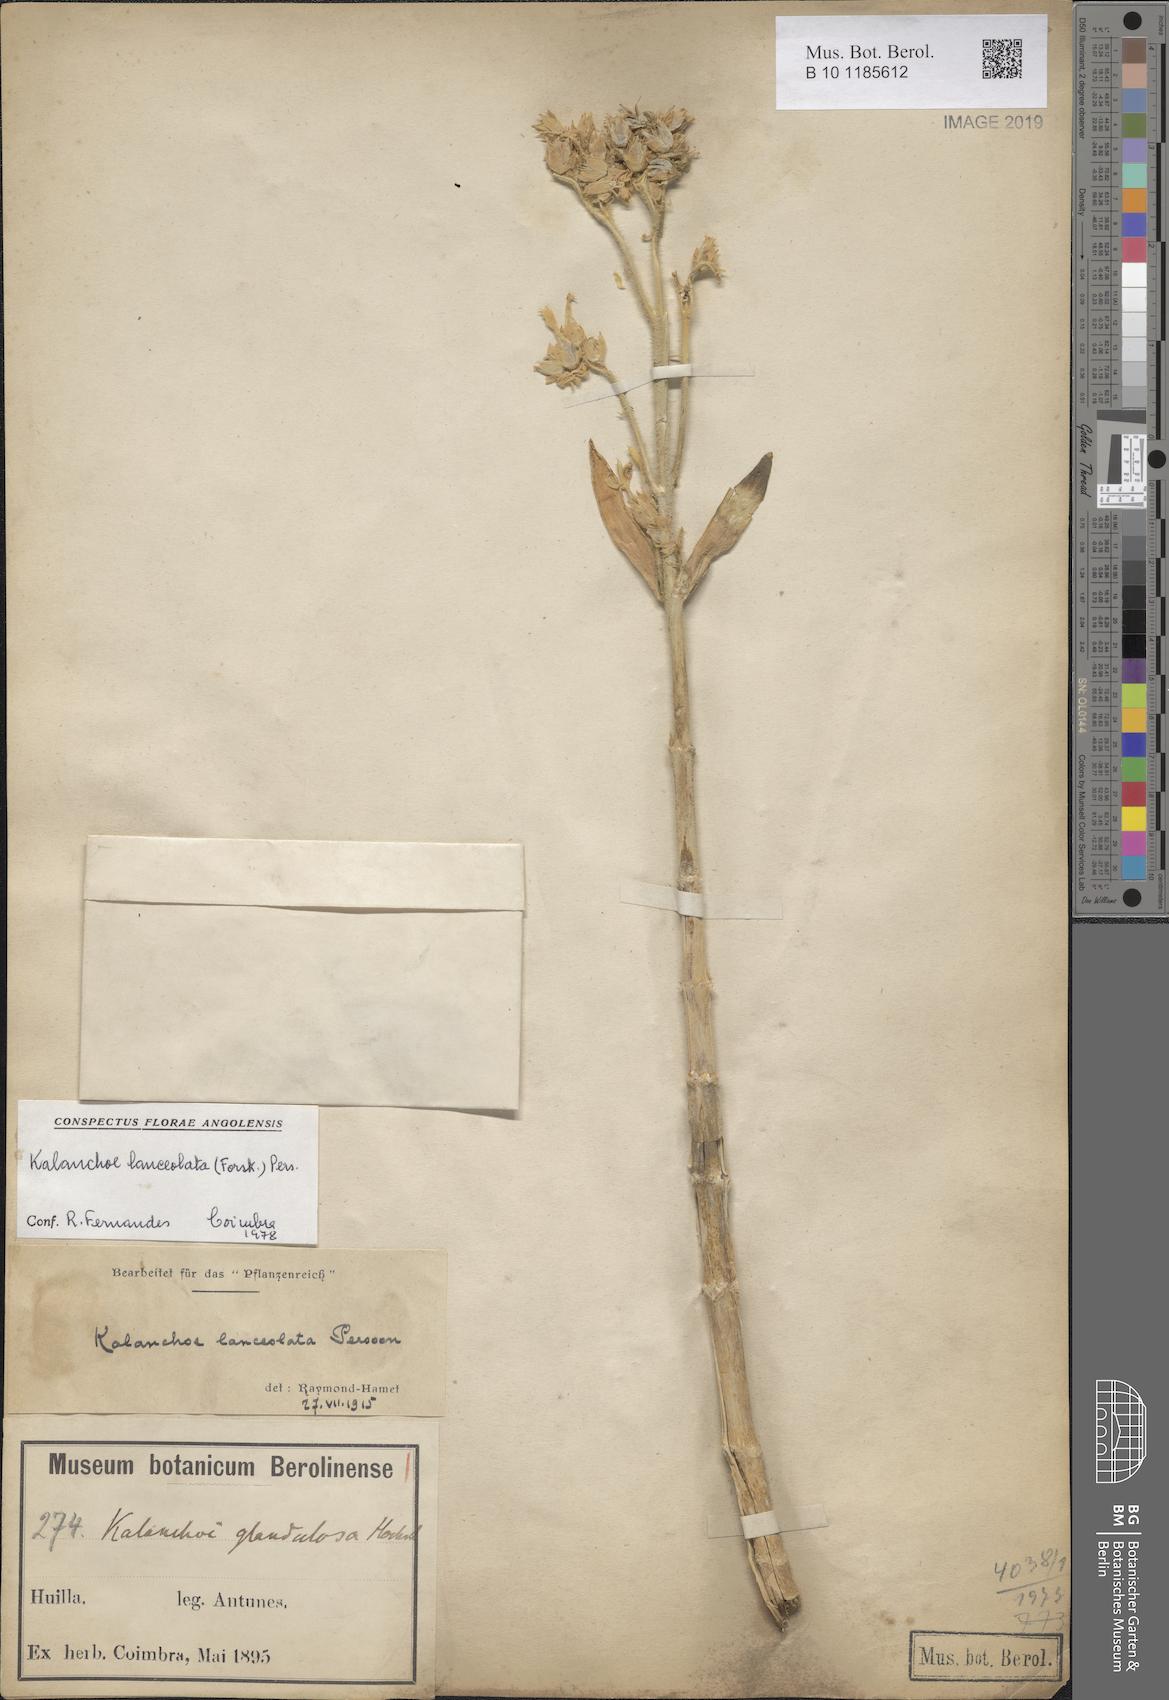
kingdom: Plantae
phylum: Tracheophyta
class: Magnoliopsida
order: Saxifragales
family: Crassulaceae
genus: Kalanchoe
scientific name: Kalanchoe lanceolata
